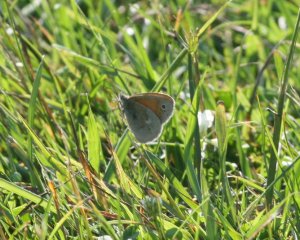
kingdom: Animalia
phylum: Arthropoda
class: Insecta
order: Lepidoptera
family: Nymphalidae
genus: Coenonympha
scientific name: Coenonympha tullia
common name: Large Heath
